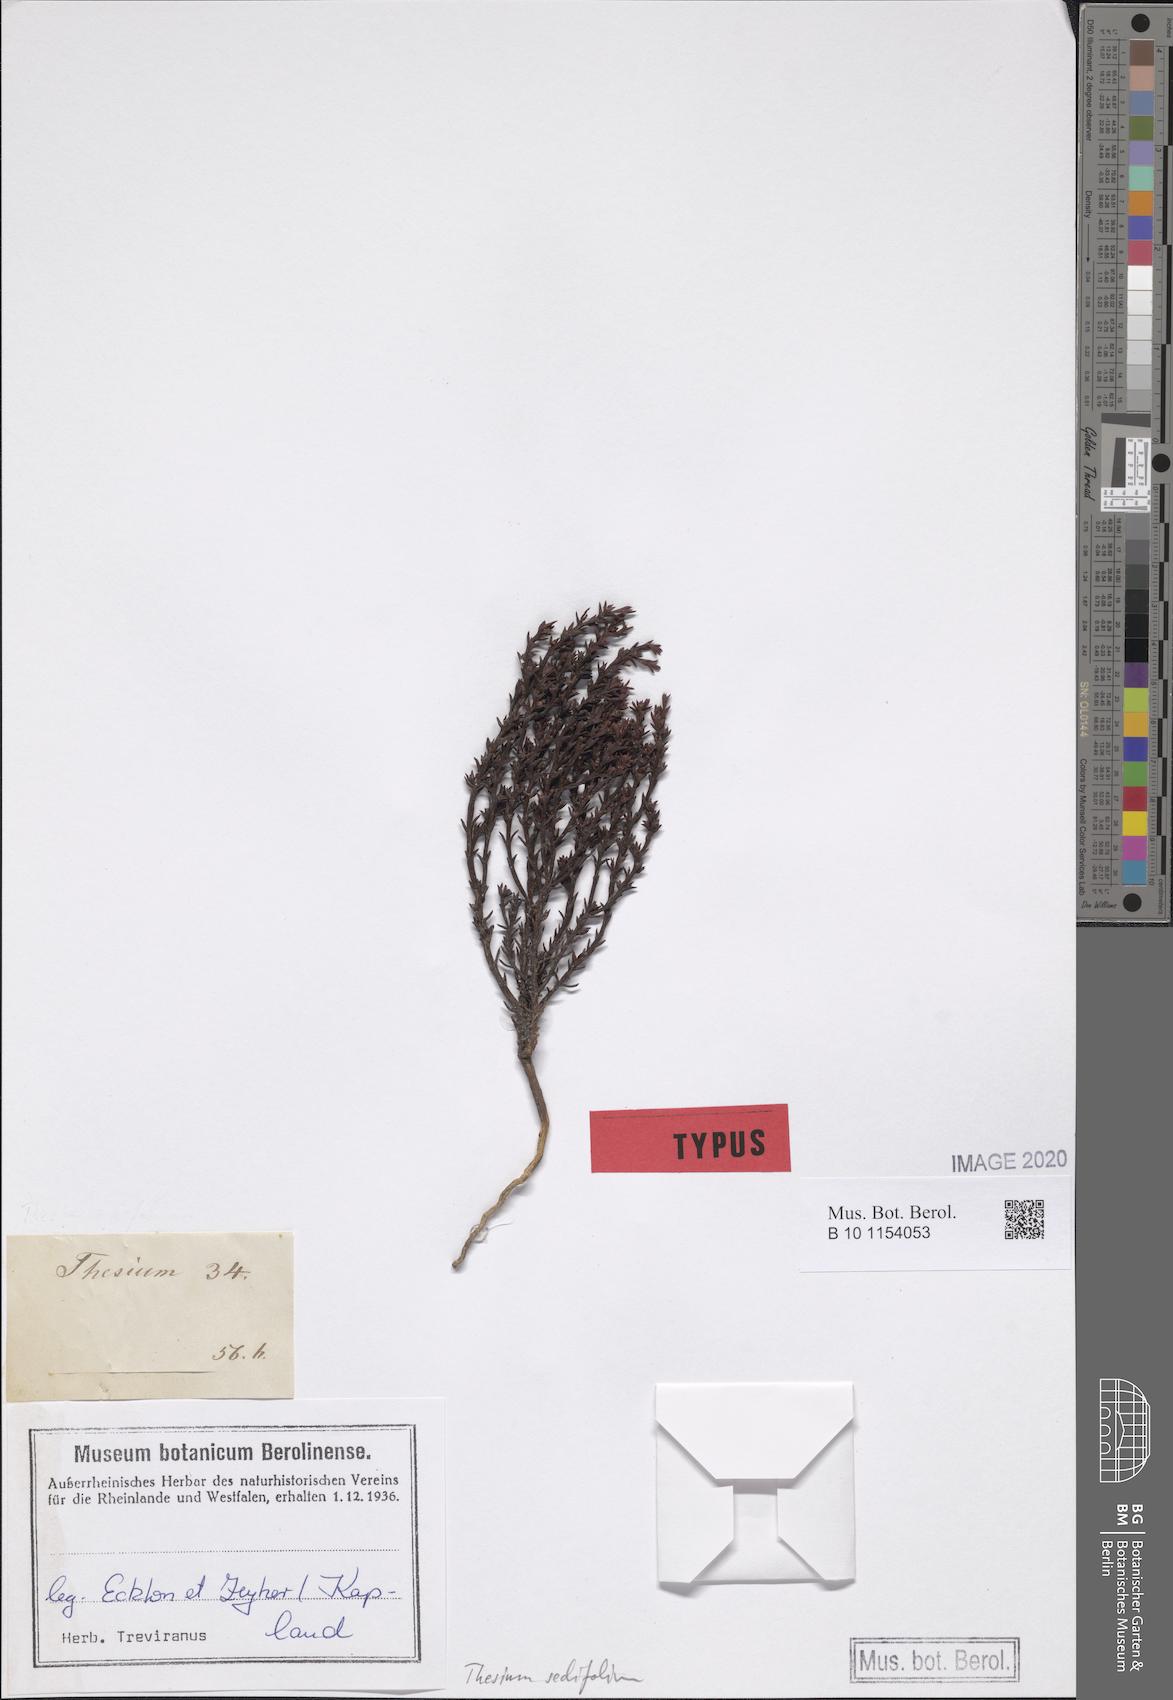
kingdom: Plantae
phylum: Tracheophyta
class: Magnoliopsida
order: Santalales
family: Thesiaceae
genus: Thesium
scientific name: Thesium sedifolium
